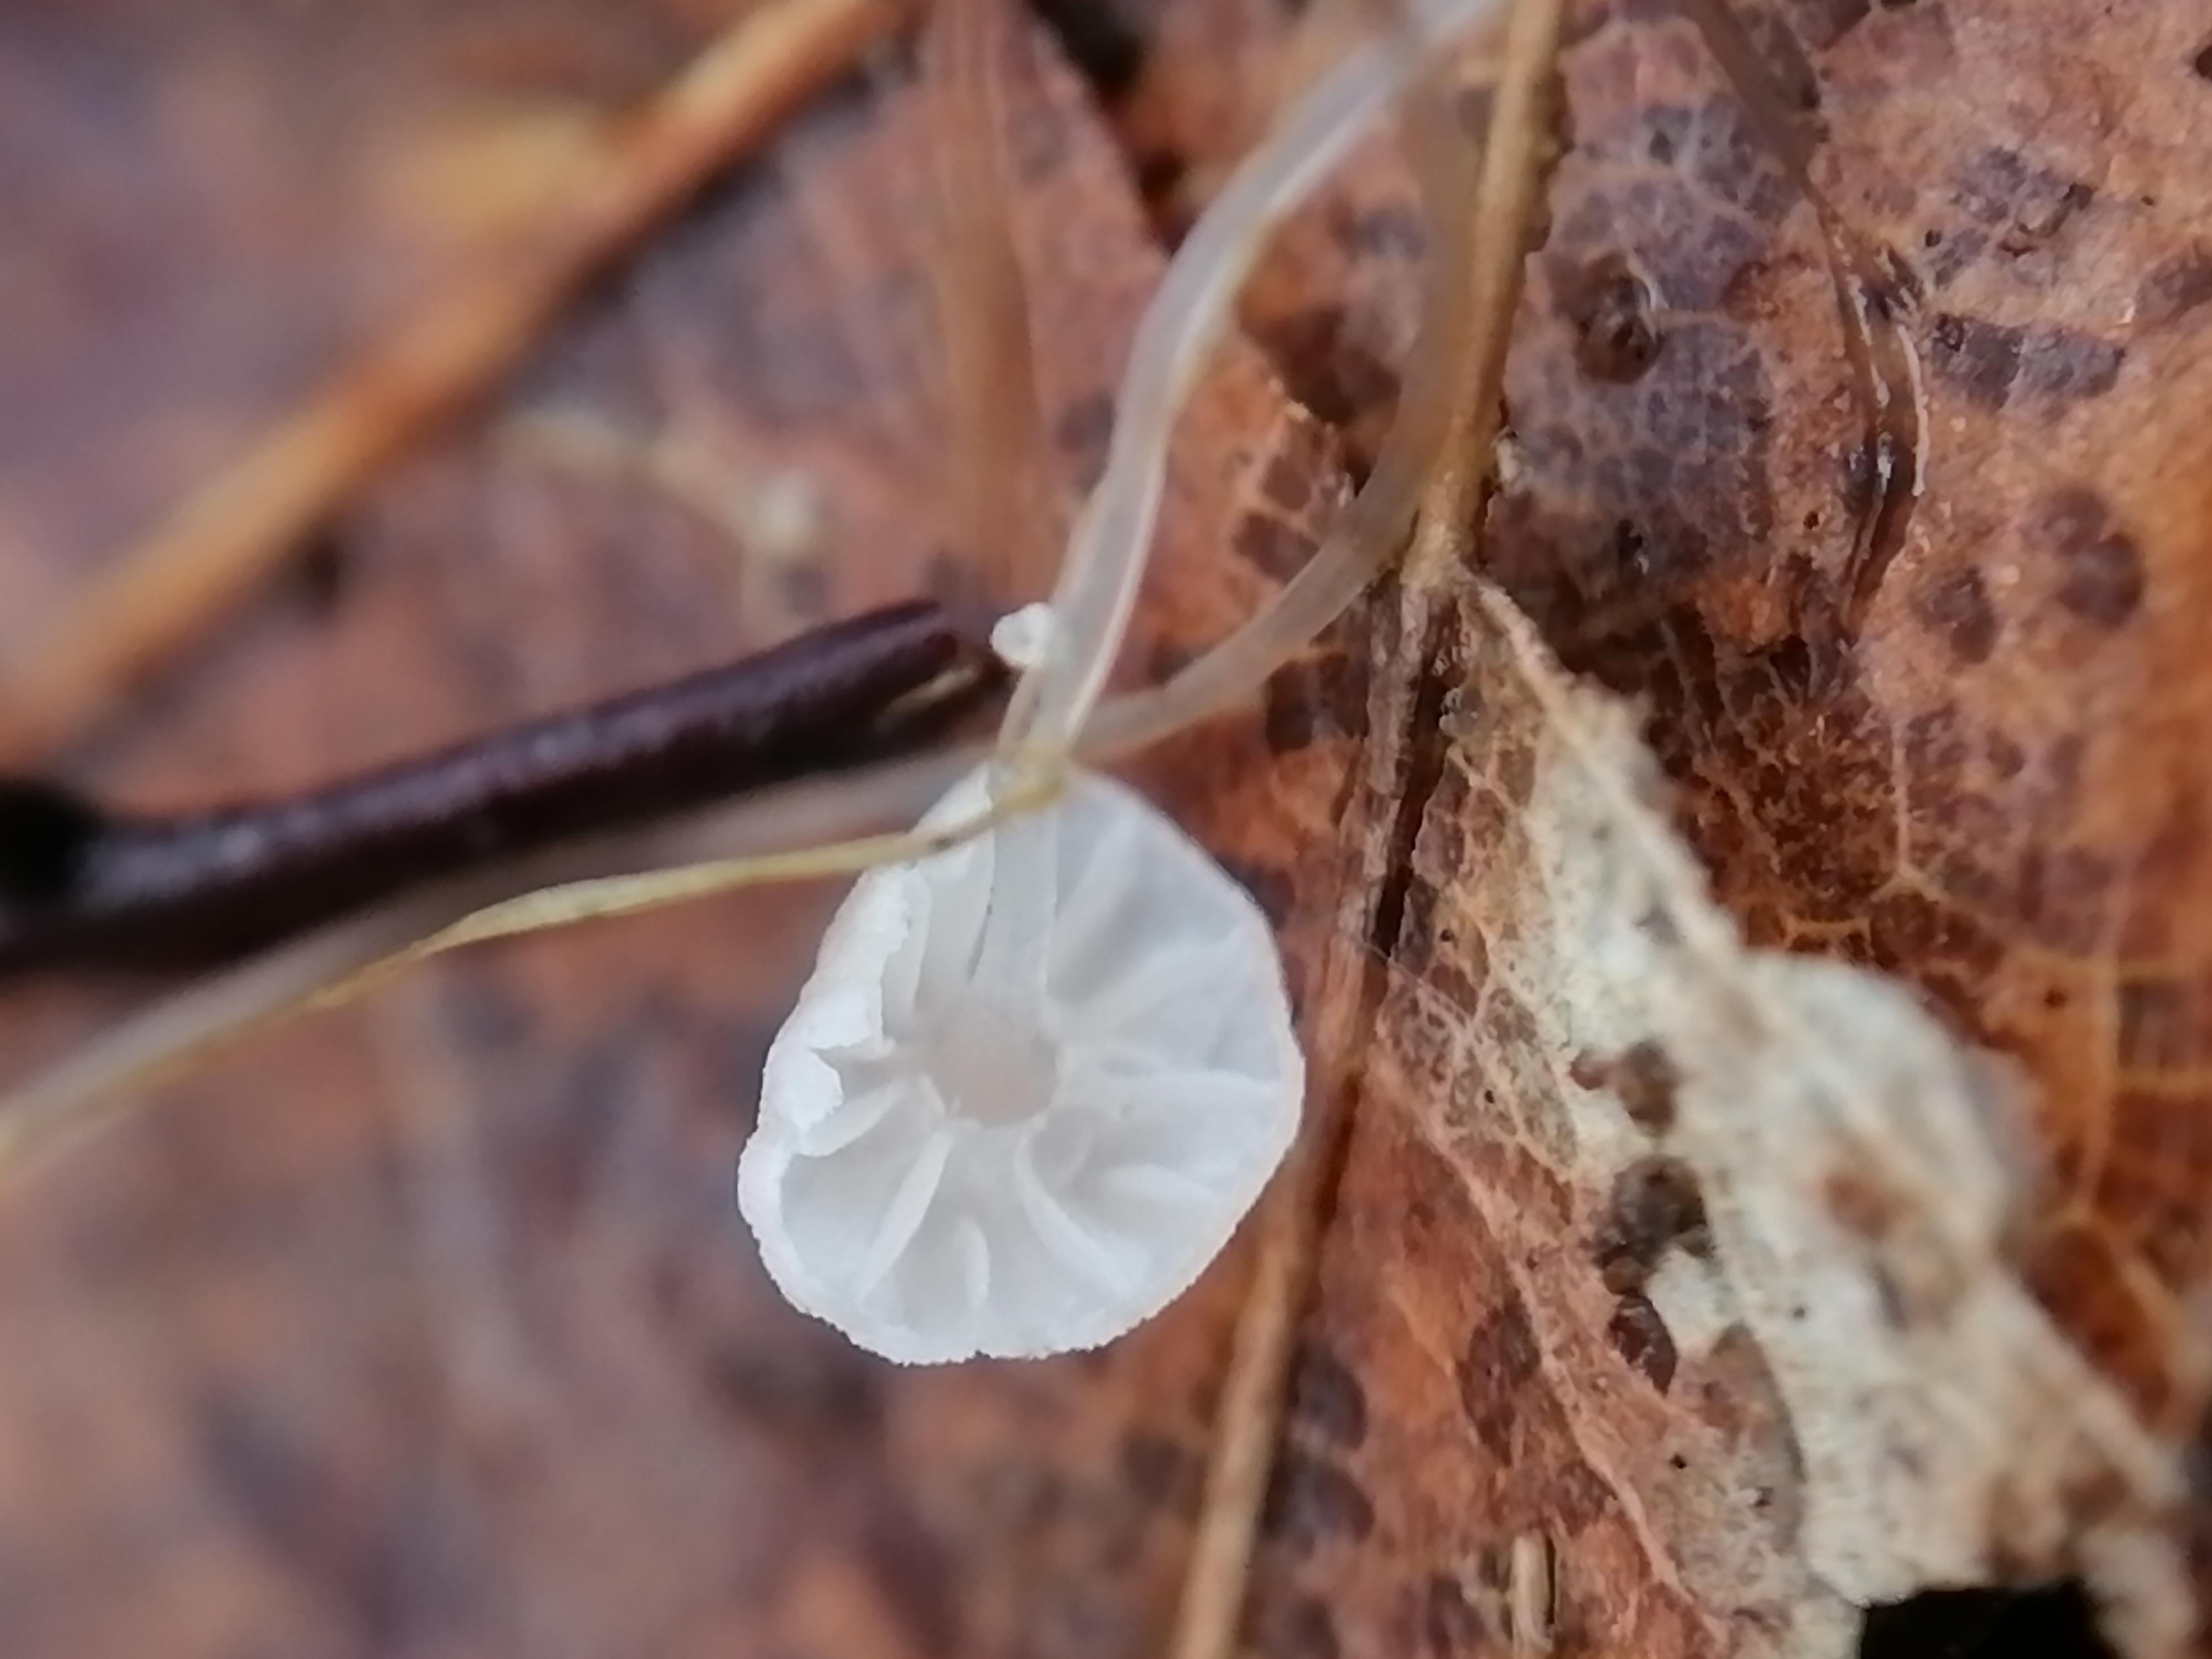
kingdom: Fungi
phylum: Basidiomycota
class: Agaricomycetes
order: Agaricales
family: Mycenaceae
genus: Mycena
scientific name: Mycena
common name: huesvamp
